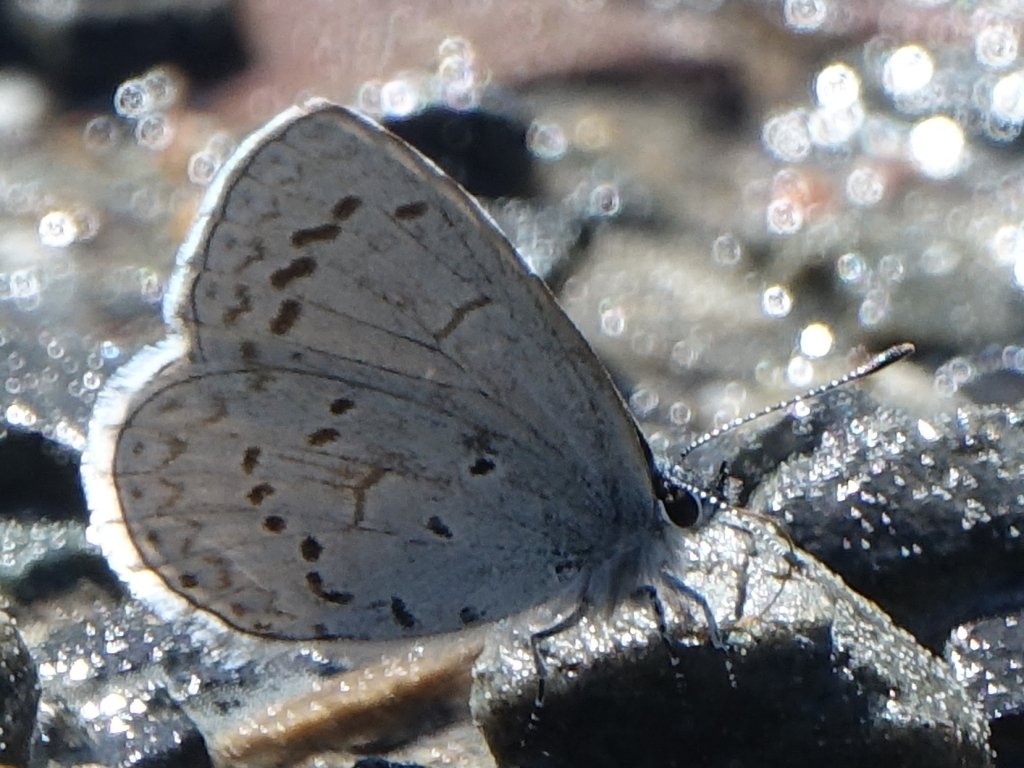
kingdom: Animalia
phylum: Arthropoda
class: Insecta
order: Lepidoptera
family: Lycaenidae
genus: Celastrina
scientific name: Celastrina ladon
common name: Echo Azure
